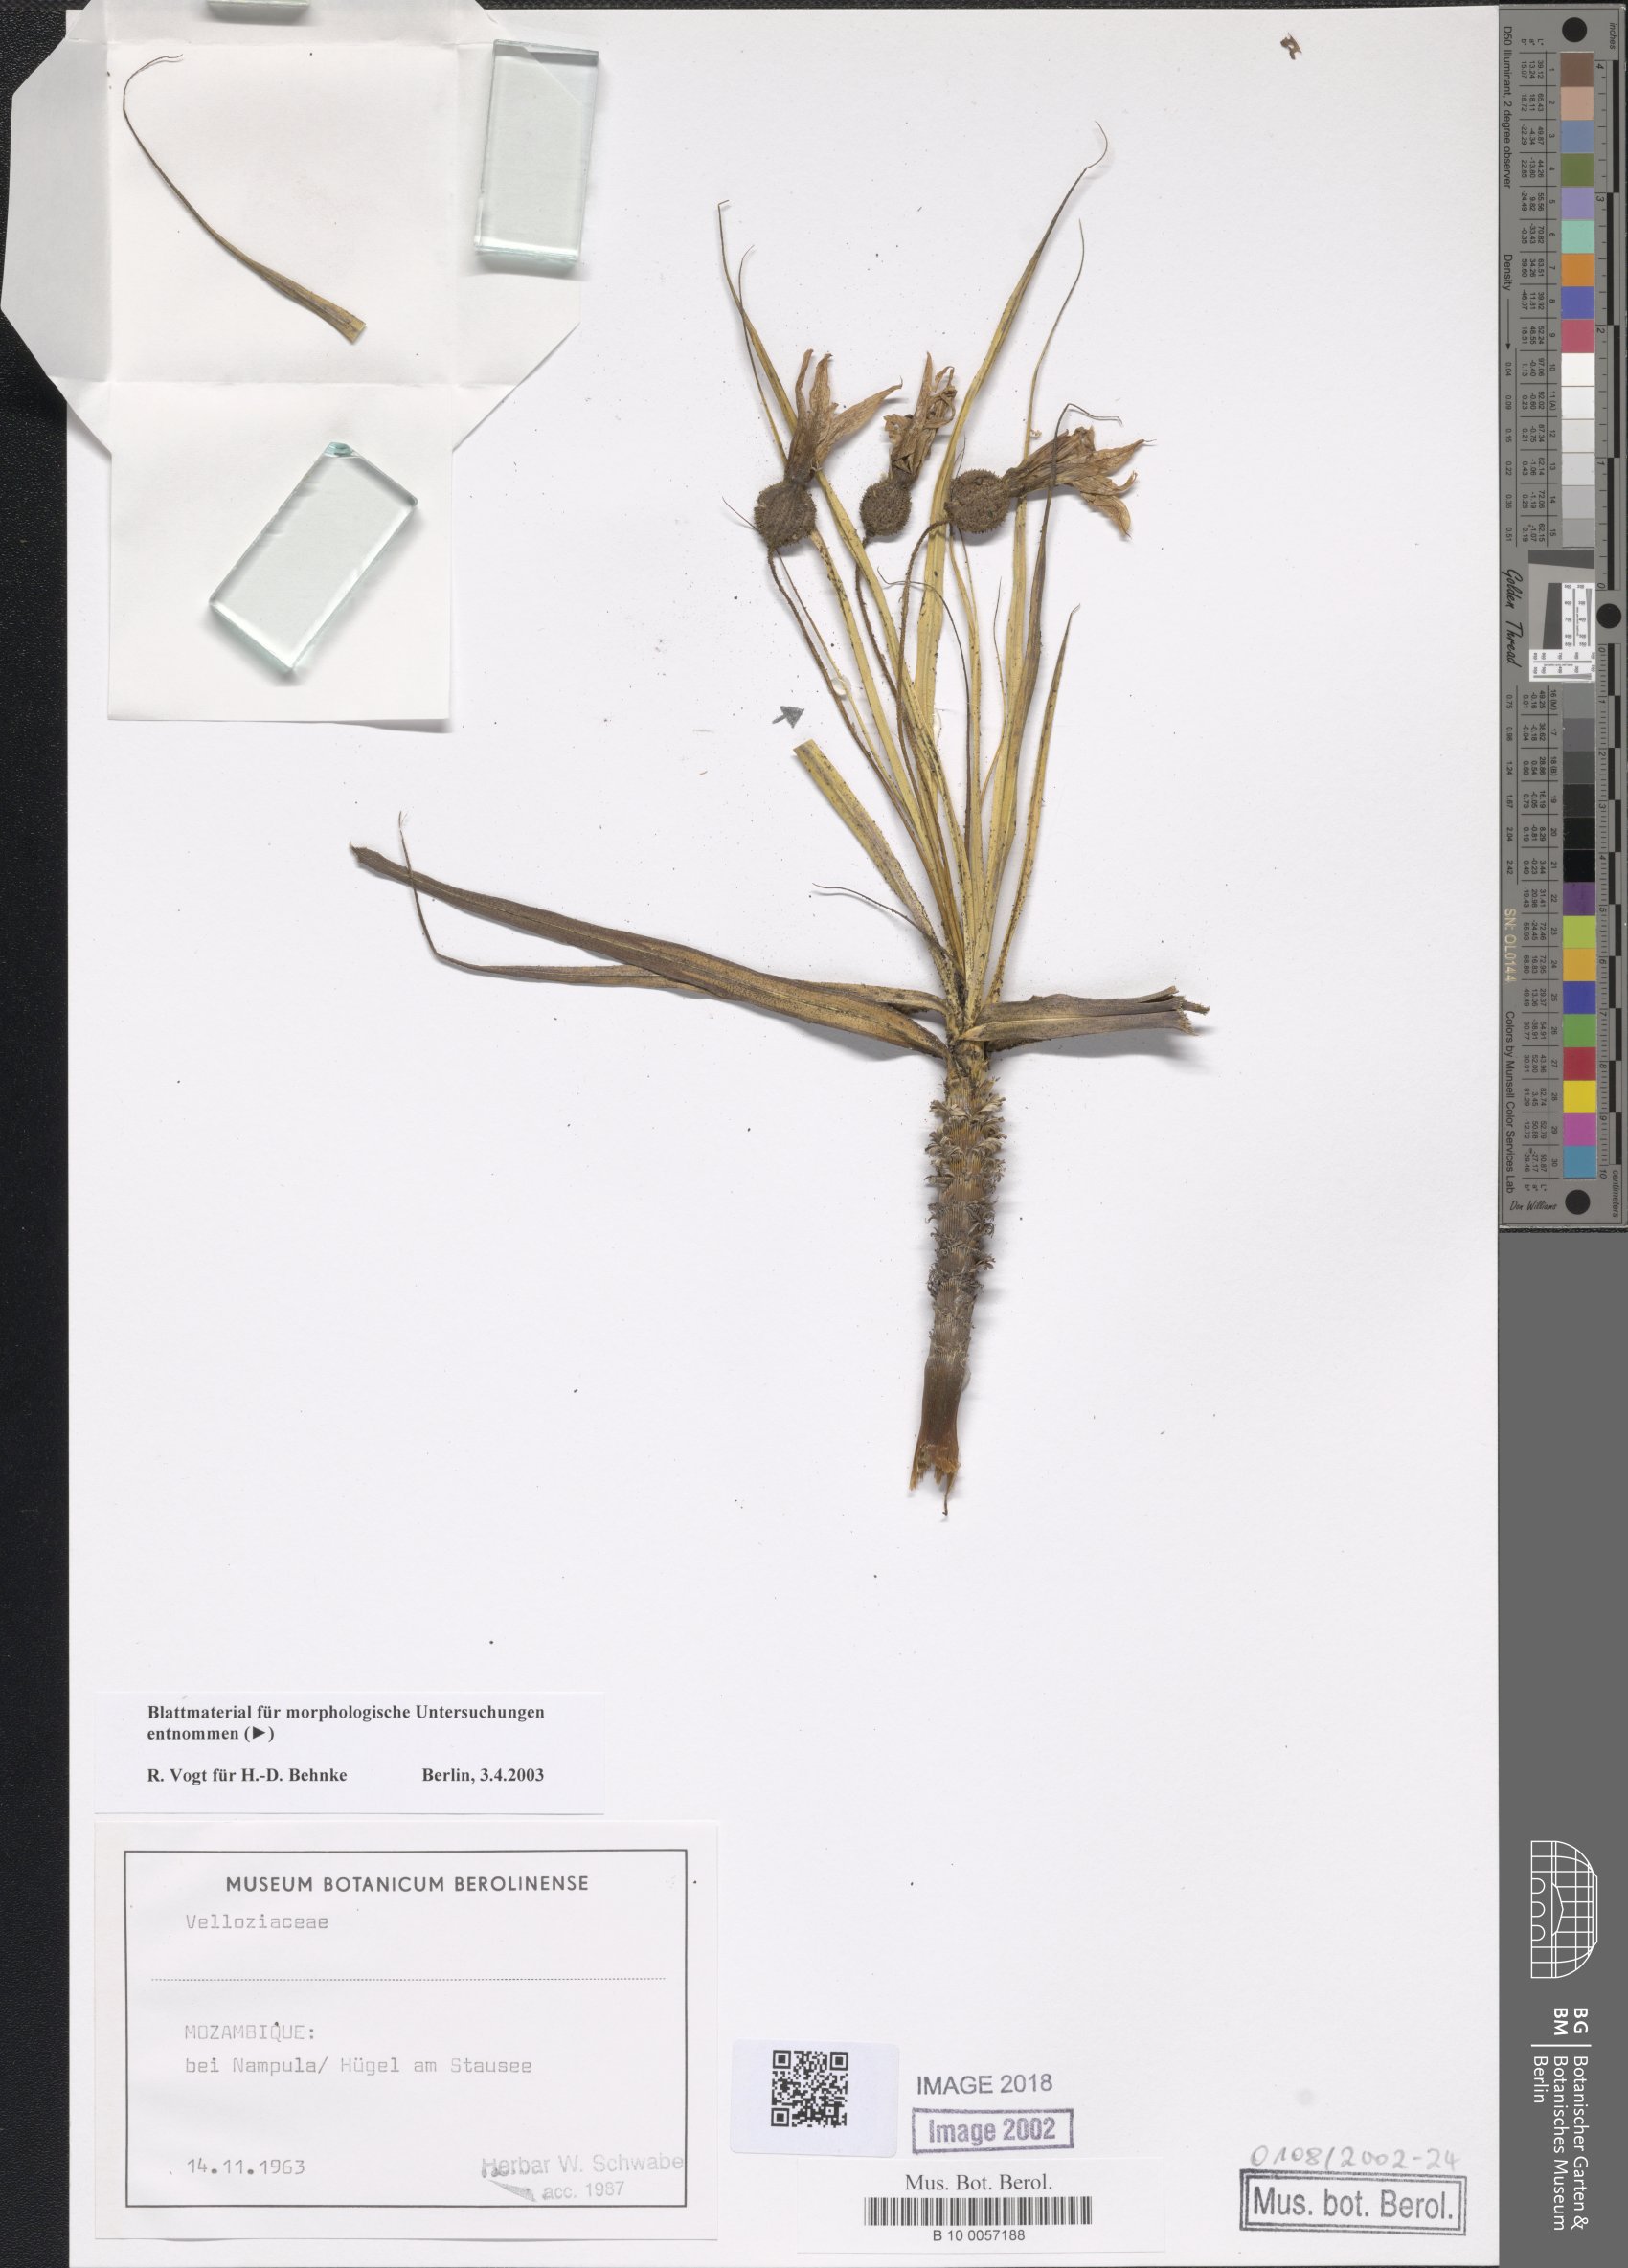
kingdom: Plantae
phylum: Tracheophyta
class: Liliopsida
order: Pandanales
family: Velloziaceae
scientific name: Velloziaceae
